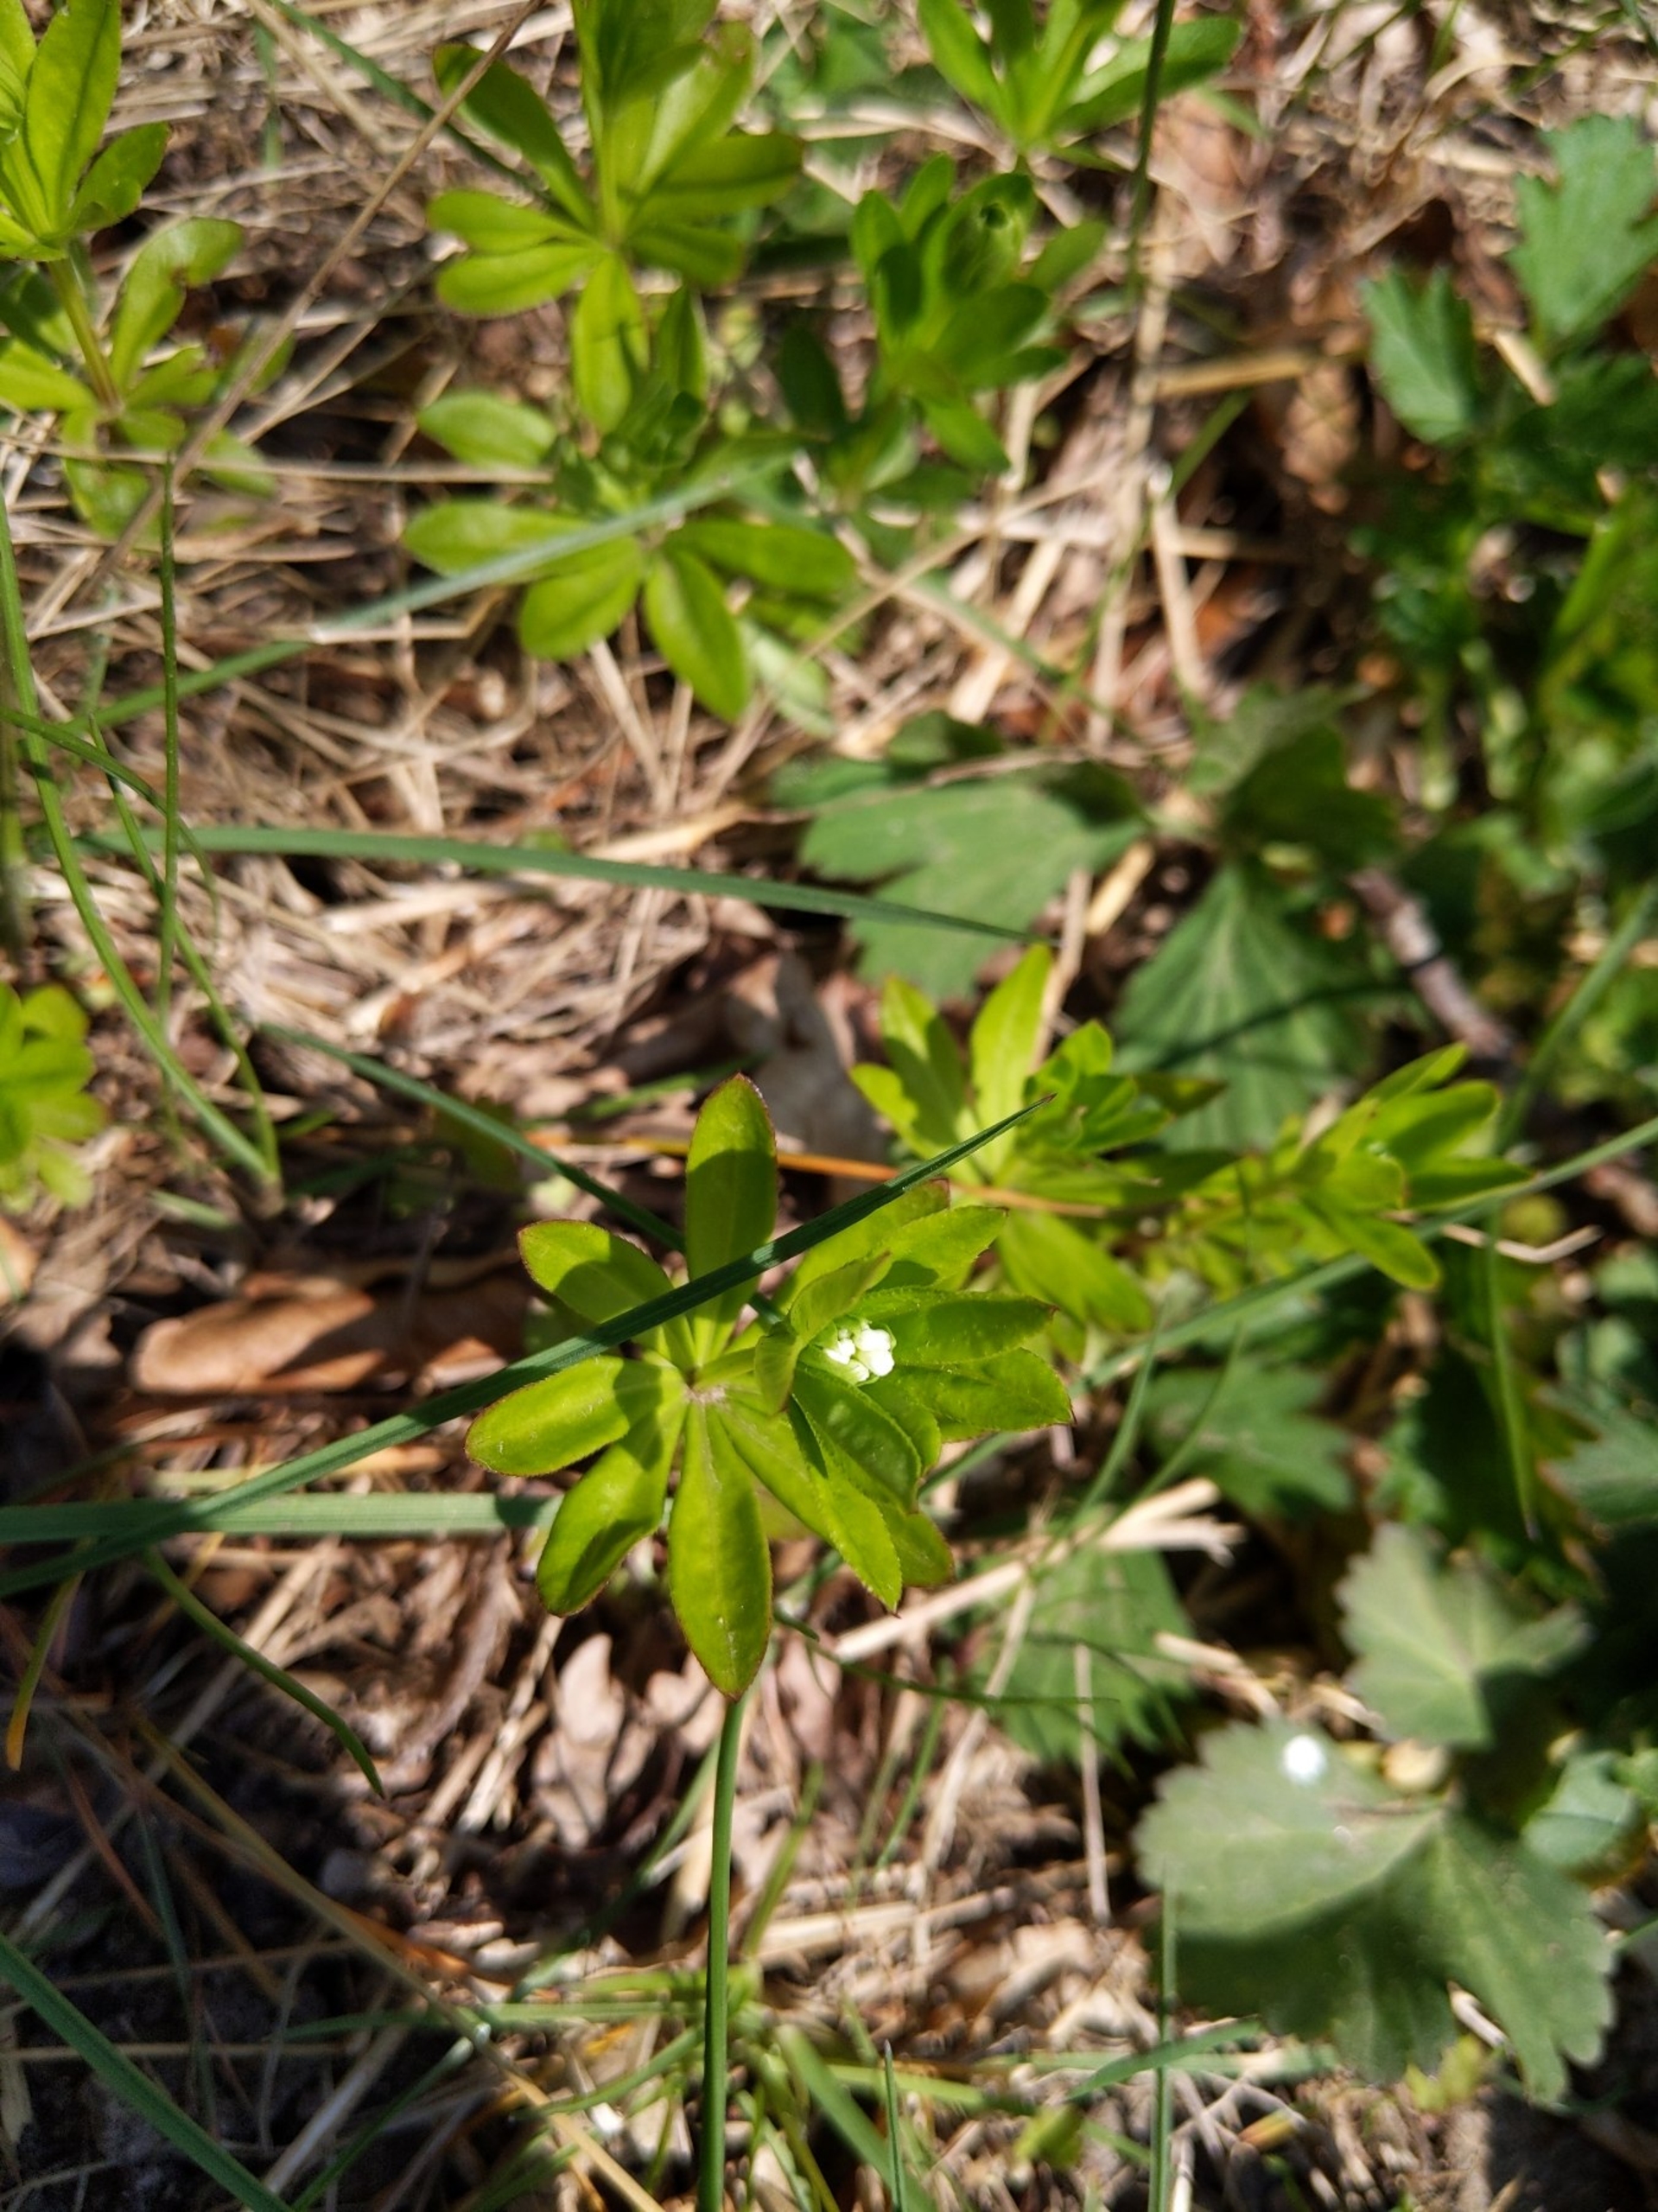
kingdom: Plantae
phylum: Tracheophyta
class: Magnoliopsida
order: Gentianales
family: Rubiaceae
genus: Galium
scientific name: Galium odoratum
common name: Skovmærke
